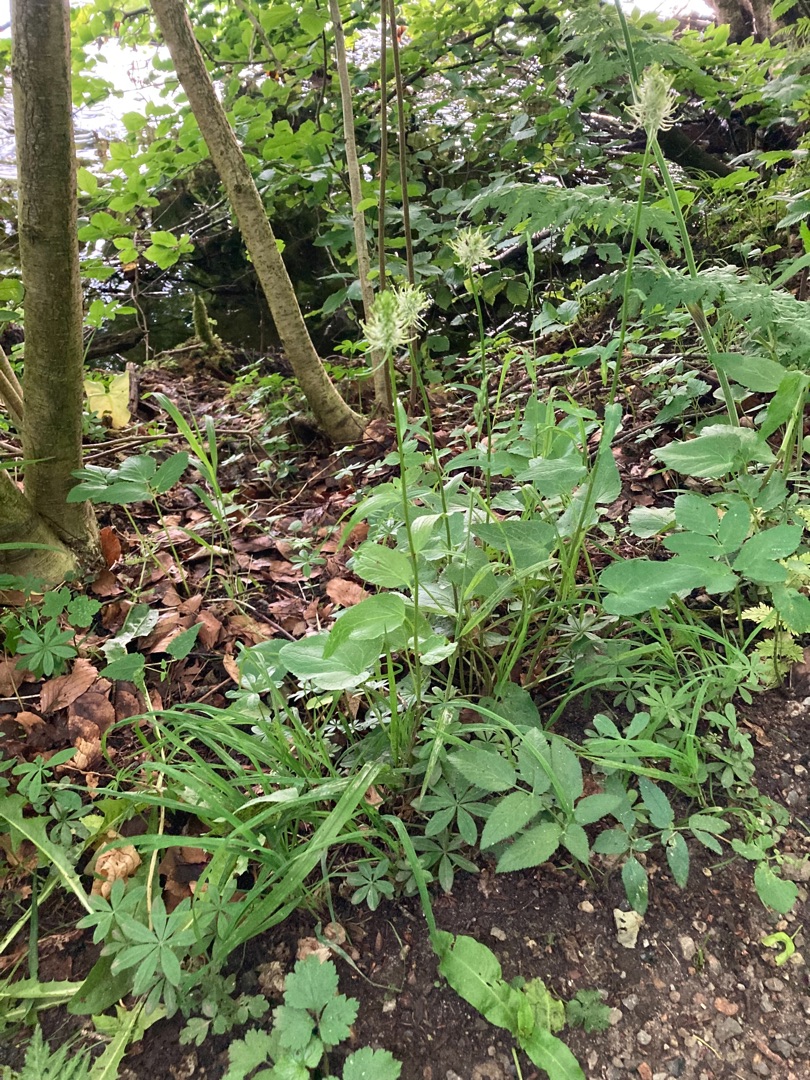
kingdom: Plantae
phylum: Tracheophyta
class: Magnoliopsida
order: Asterales
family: Campanulaceae
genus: Phyteuma
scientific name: Phyteuma spicatum
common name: Aks-rapunsel
